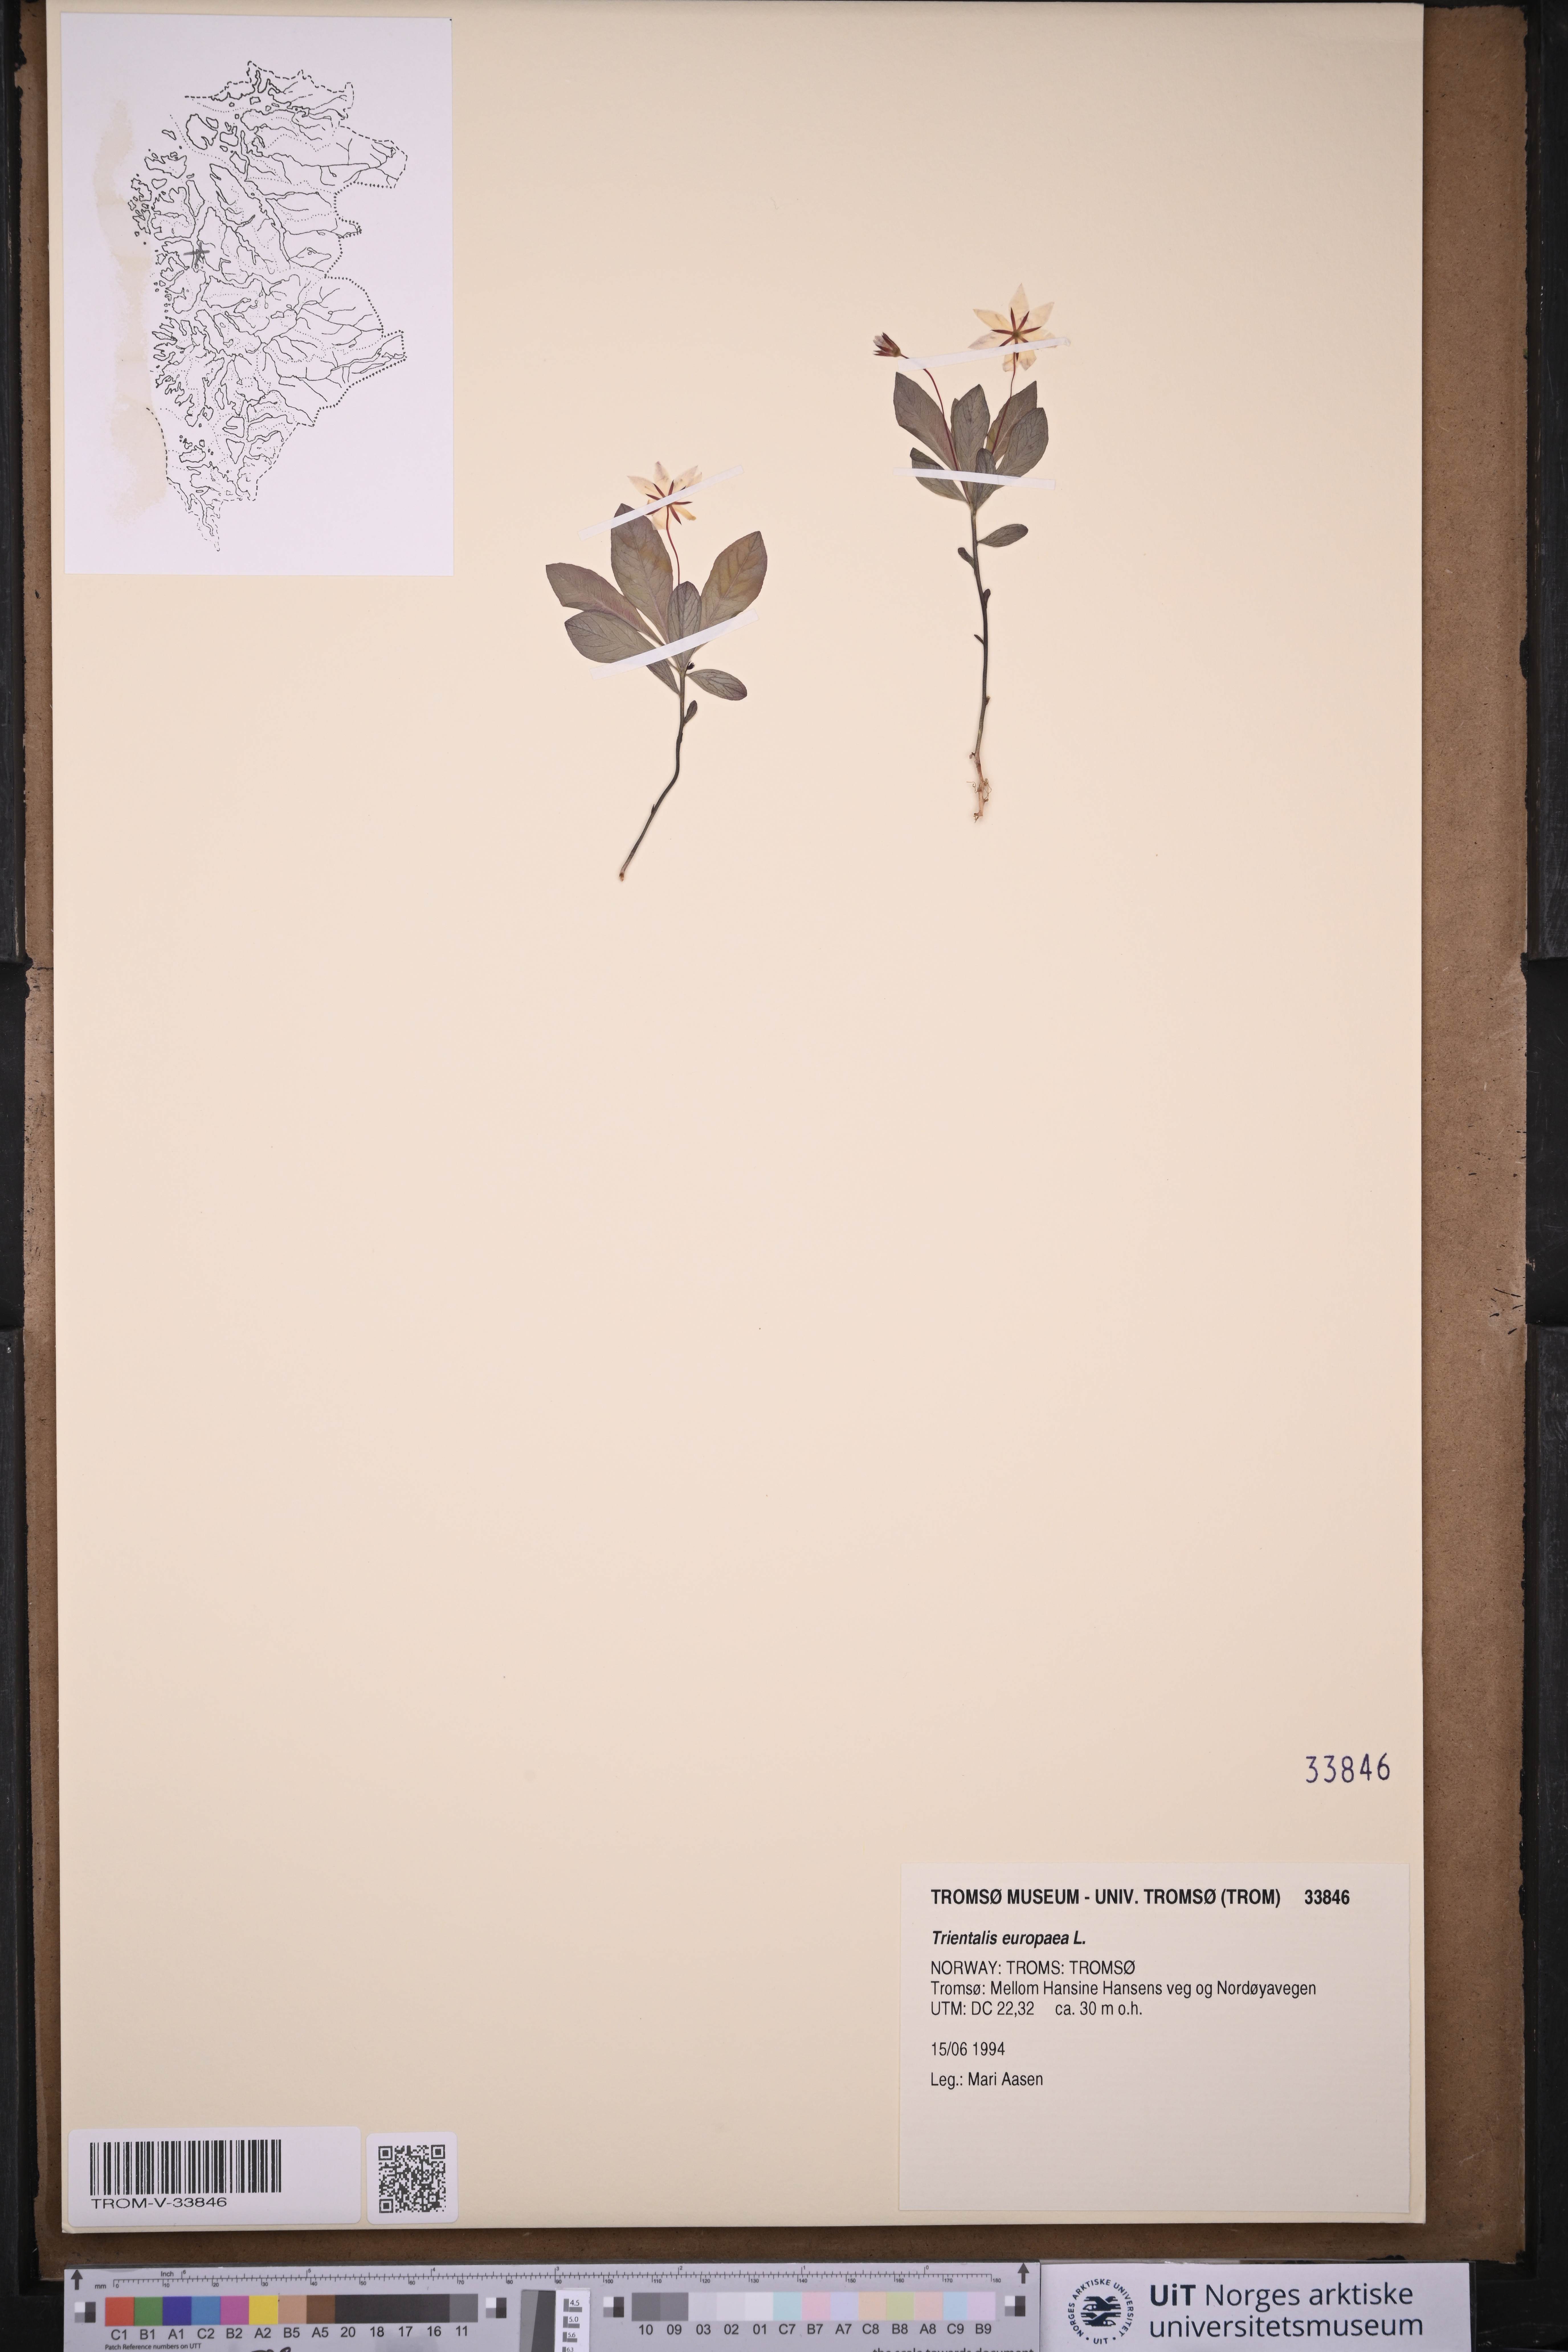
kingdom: Plantae
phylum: Tracheophyta
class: Magnoliopsida
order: Ericales
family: Primulaceae
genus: Lysimachia
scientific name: Lysimachia europaea
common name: Arctic starflower
